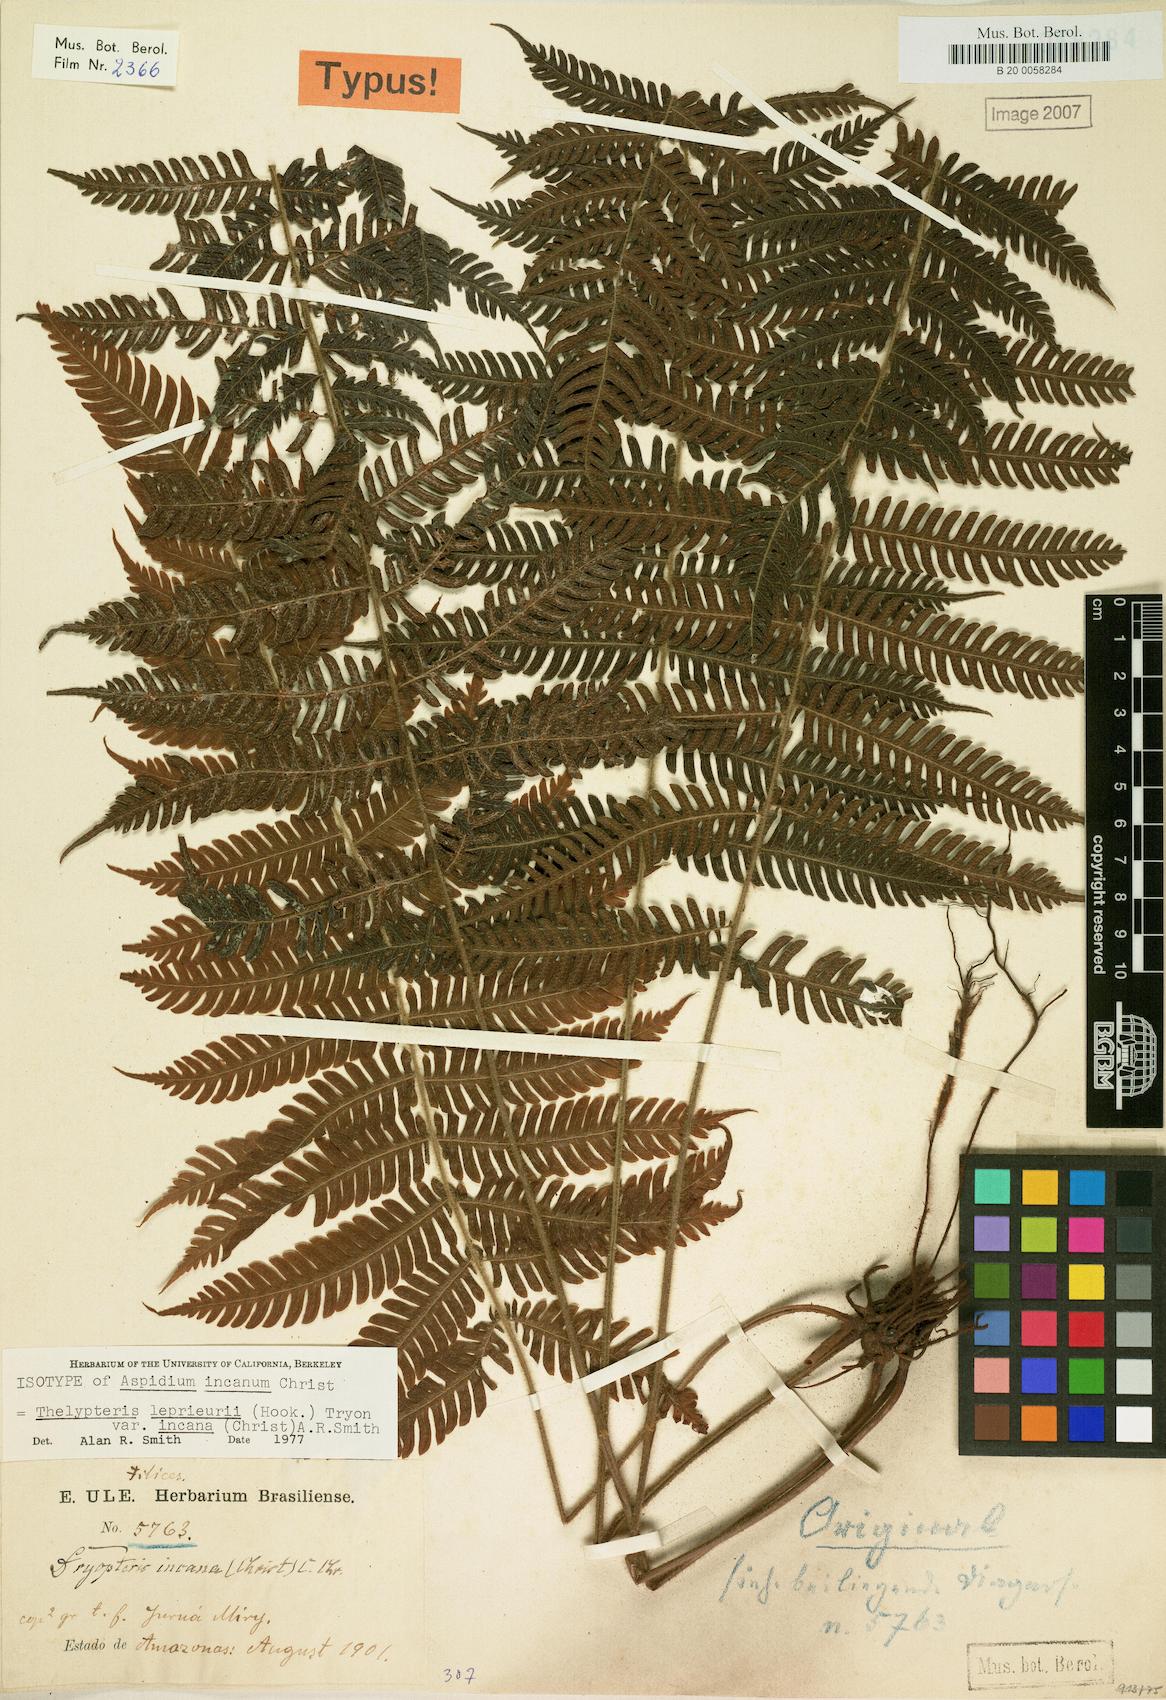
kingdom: Plantae
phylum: Tracheophyta
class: Polypodiopsida
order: Polypodiales
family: Thelypteridaceae
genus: Steiropteris
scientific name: Steiropteris leprieurii
